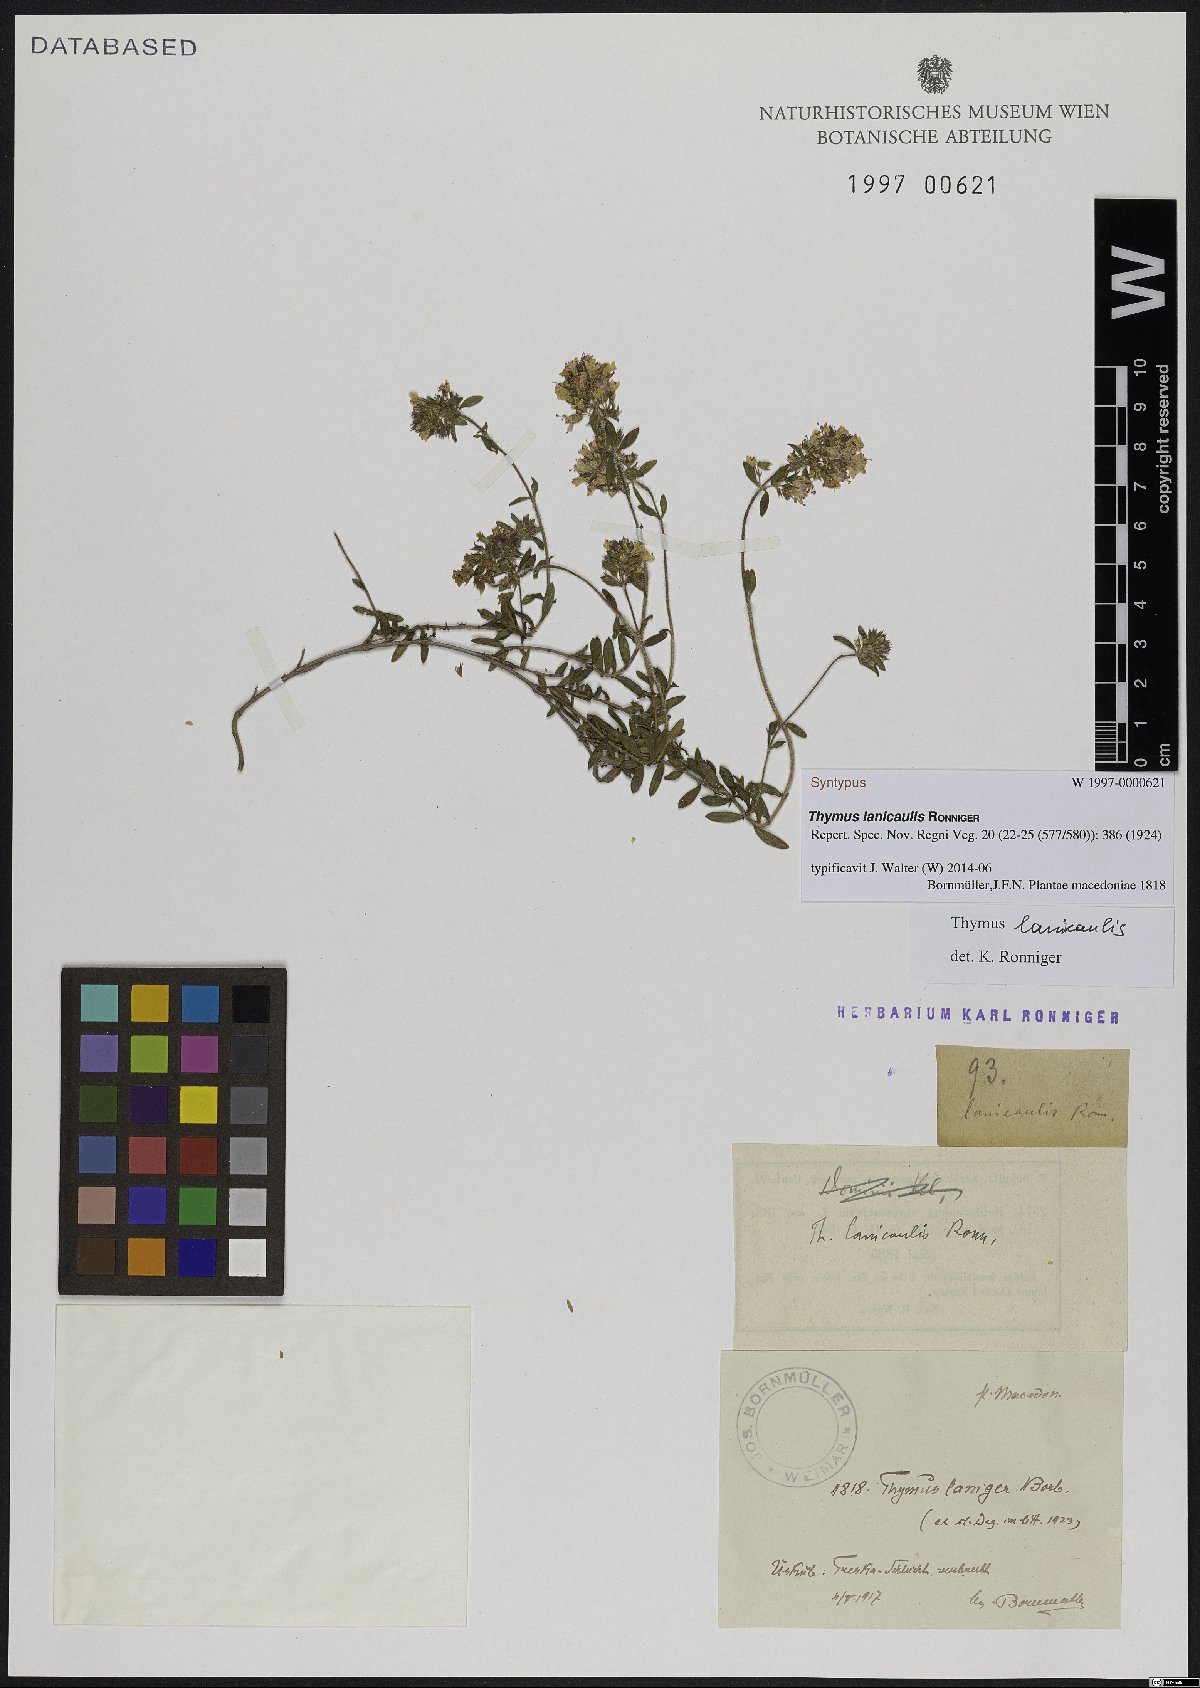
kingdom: Plantae
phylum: Tracheophyta
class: Magnoliopsida
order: Lamiales
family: Lamiaceae
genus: Thymus
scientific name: Thymus thracicus
